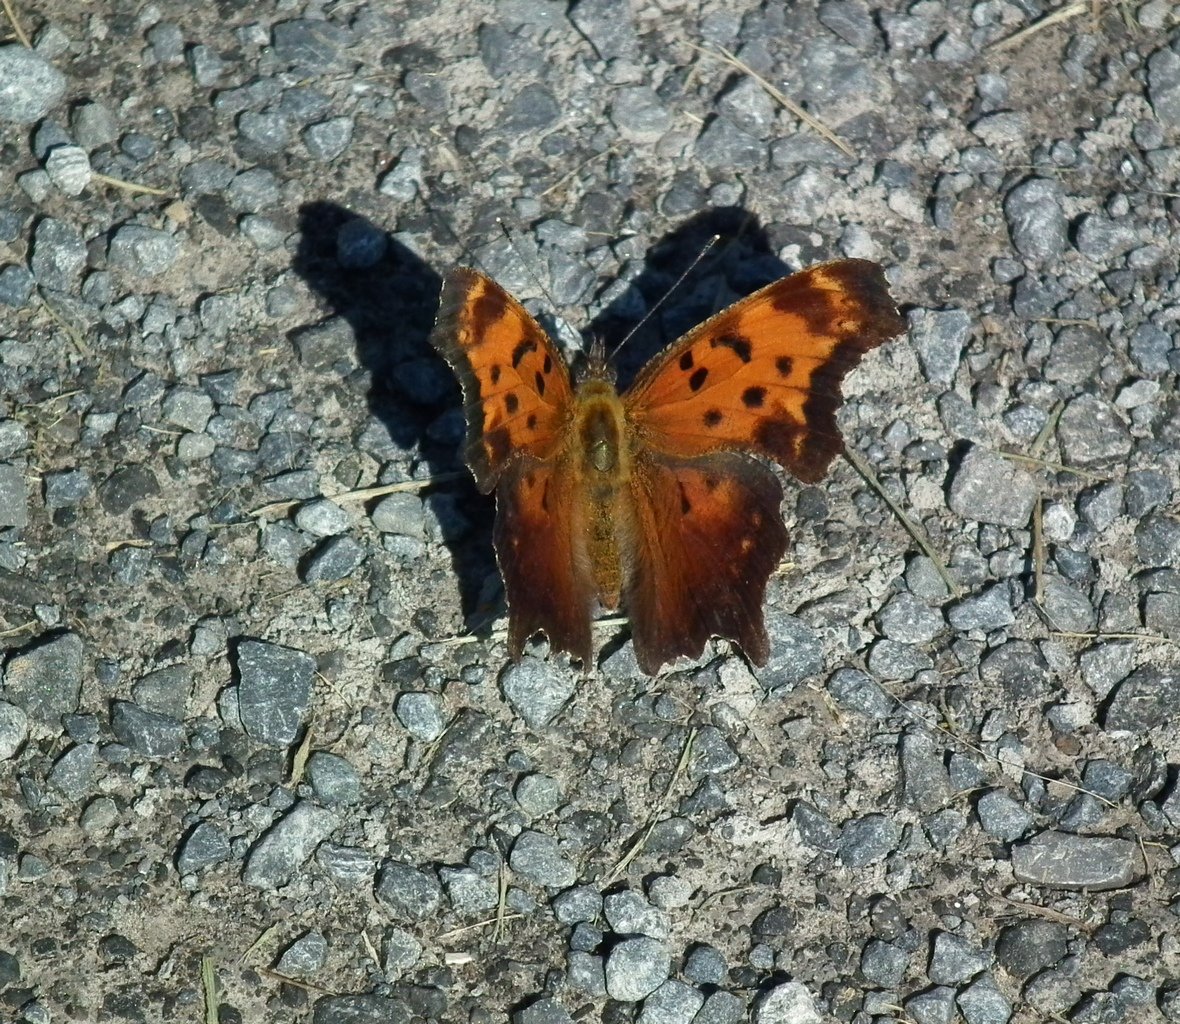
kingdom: Animalia
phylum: Arthropoda
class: Insecta
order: Lepidoptera
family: Nymphalidae
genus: Polygonia
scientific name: Polygonia progne
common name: Gray Comma
